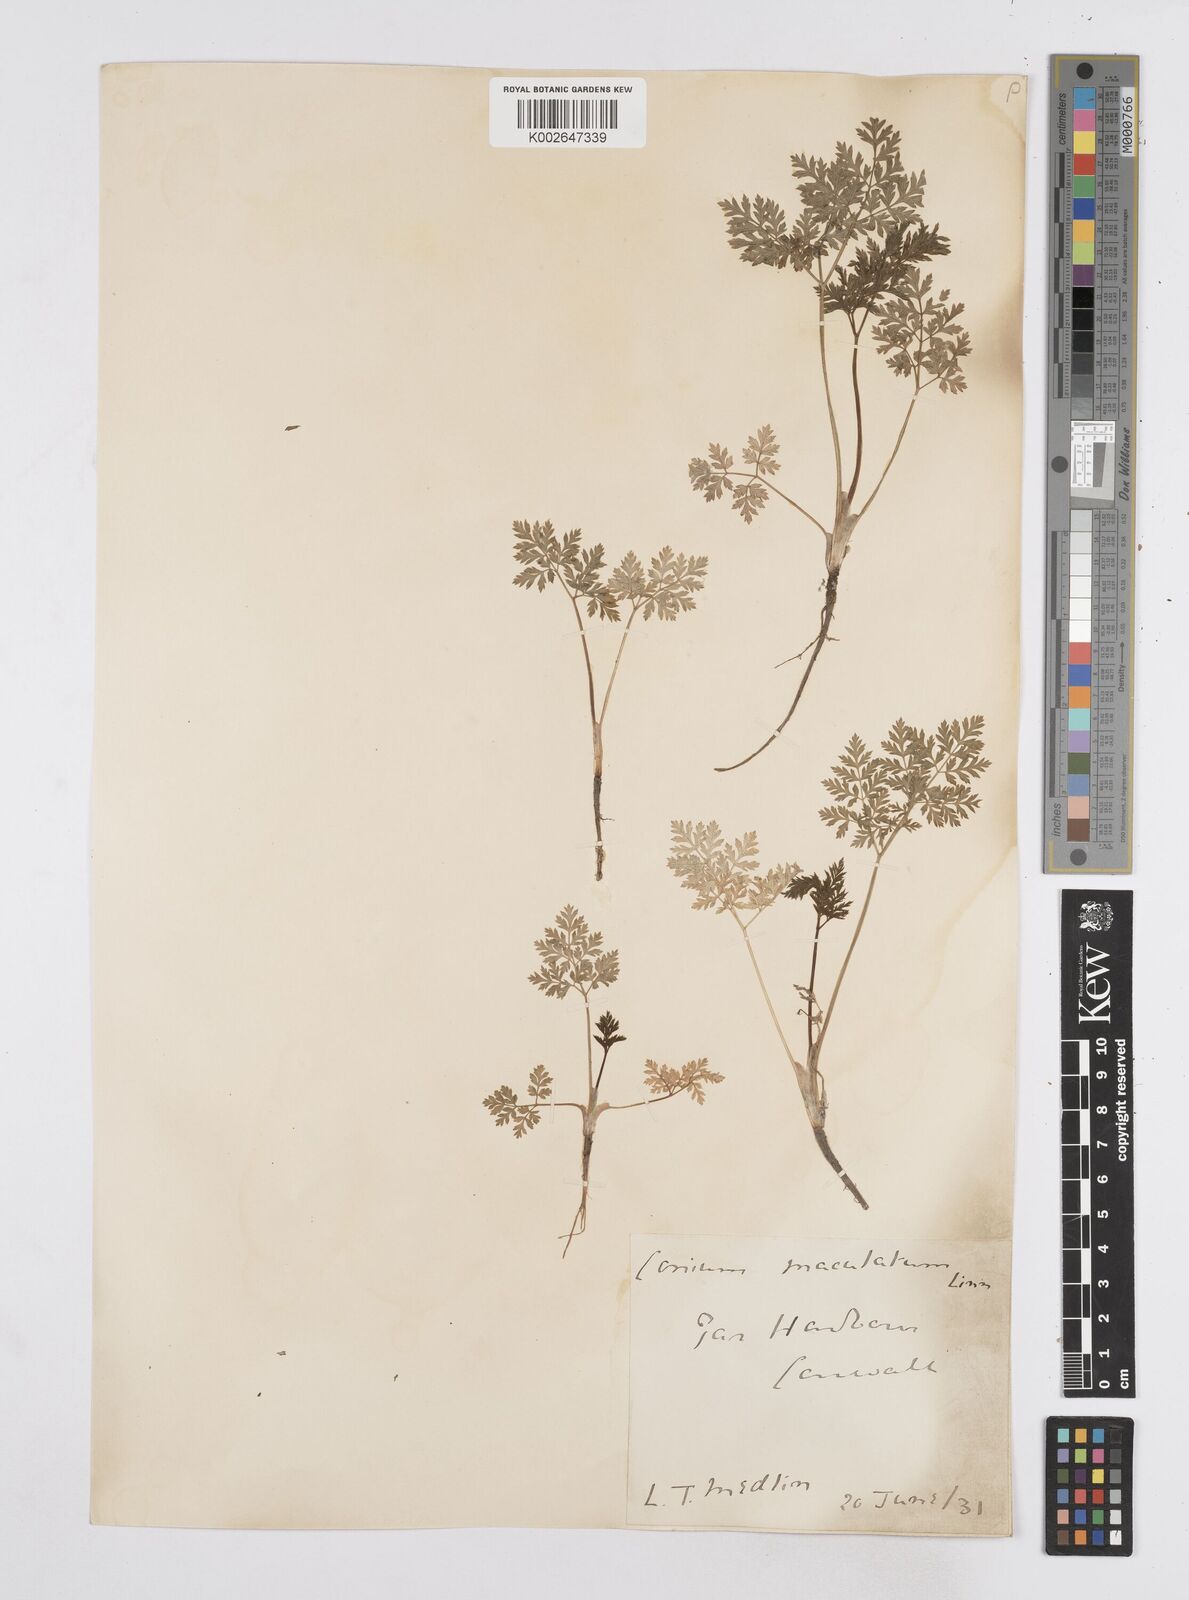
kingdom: Plantae
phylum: Tracheophyta
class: Magnoliopsida
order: Apiales
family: Apiaceae
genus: Conium
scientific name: Conium maculatum
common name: Hemlock
